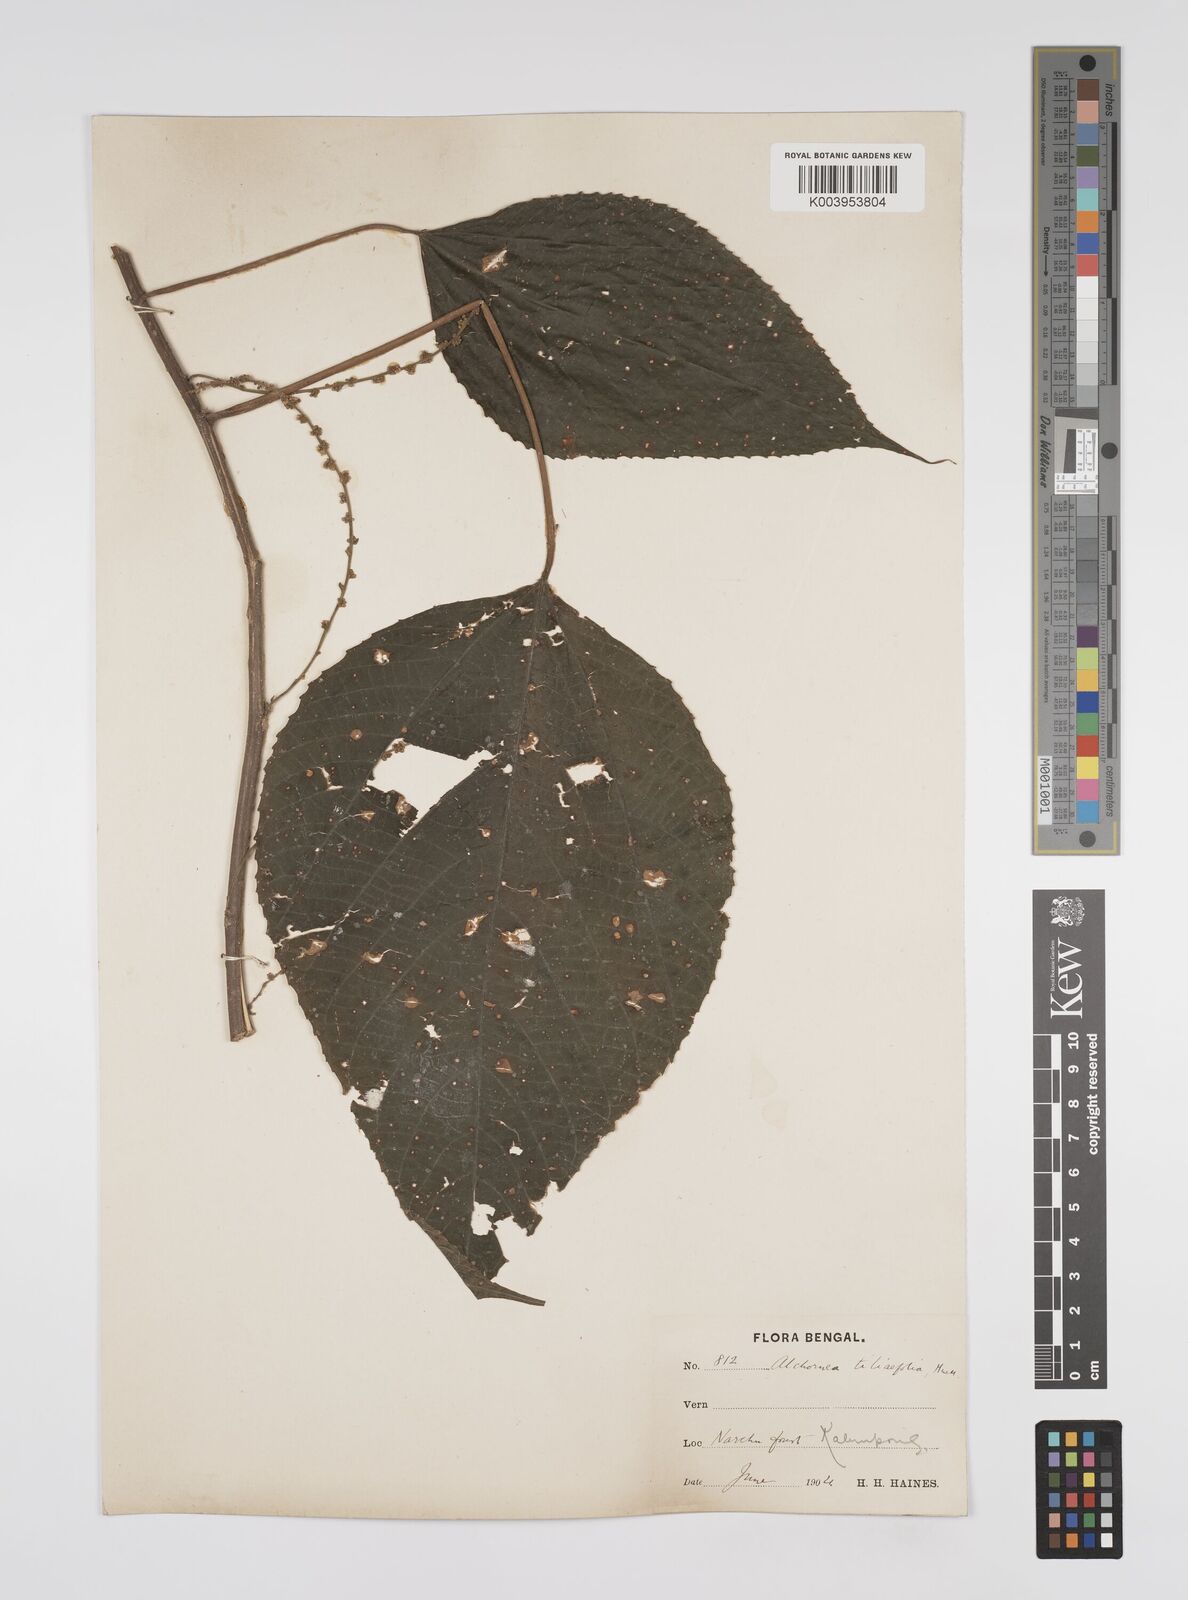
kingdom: Plantae
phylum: Tracheophyta
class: Magnoliopsida
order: Malpighiales
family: Euphorbiaceae
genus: Alchornea
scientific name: Alchornea tiliifolia
